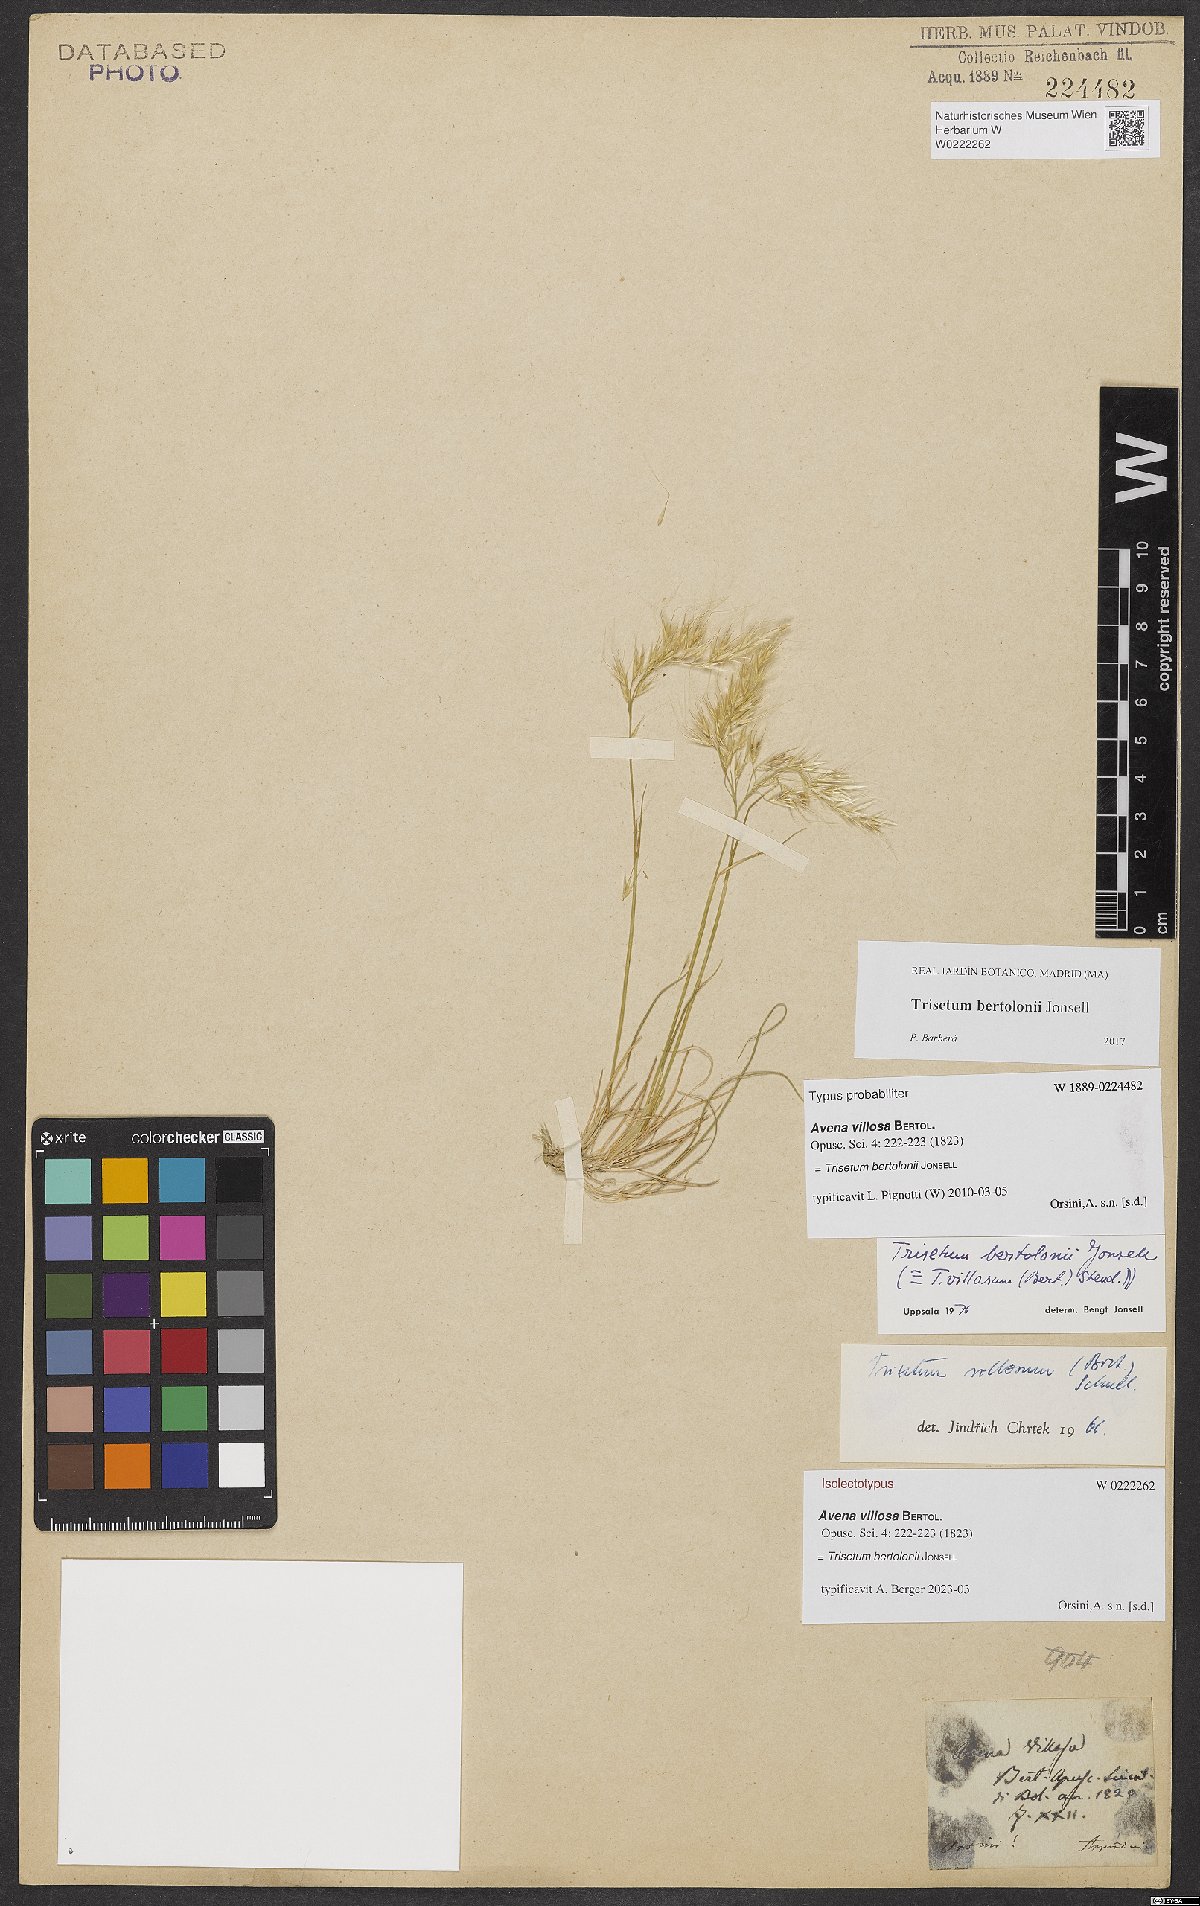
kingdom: Plantae
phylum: Tracheophyta
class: Liliopsida
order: Poales
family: Poaceae
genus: Trisetum
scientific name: Trisetum bertolonii
